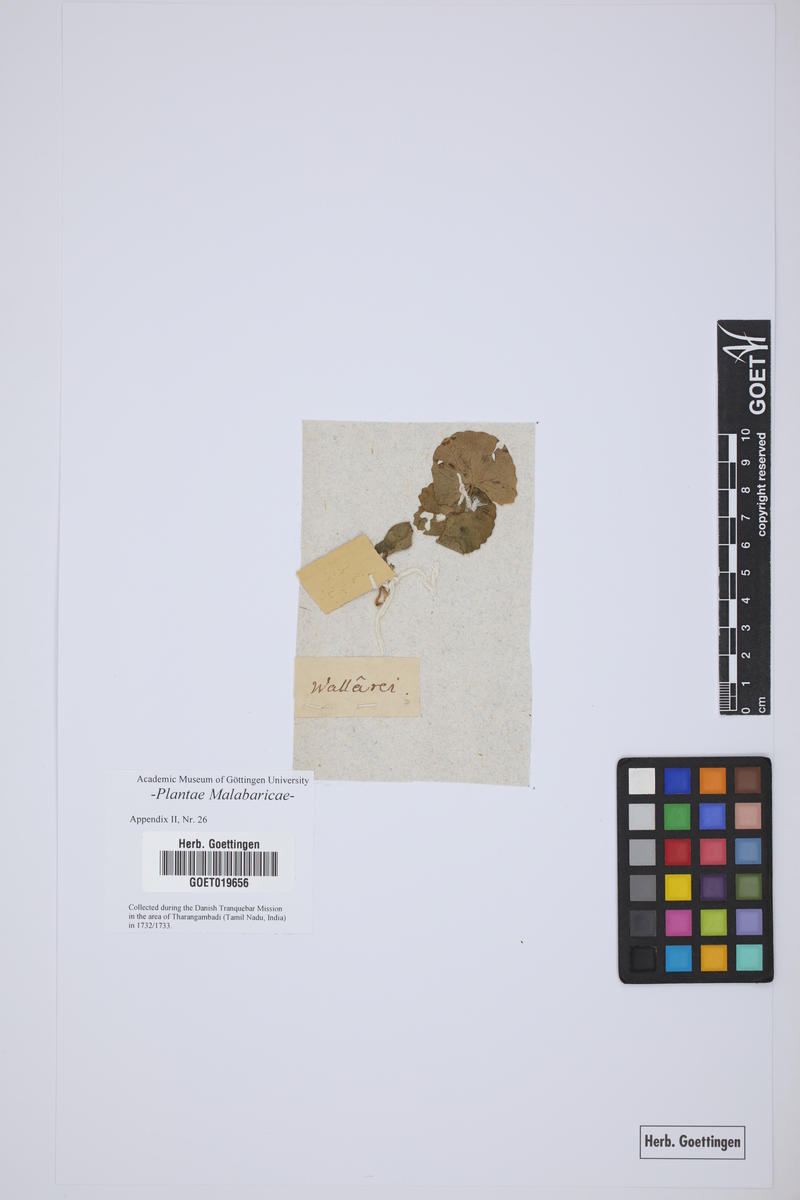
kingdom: Plantae
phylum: Tracheophyta
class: Magnoliopsida
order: Apiales
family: Apiaceae
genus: Centella
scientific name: Centella asiatica
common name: Spadeleaf
